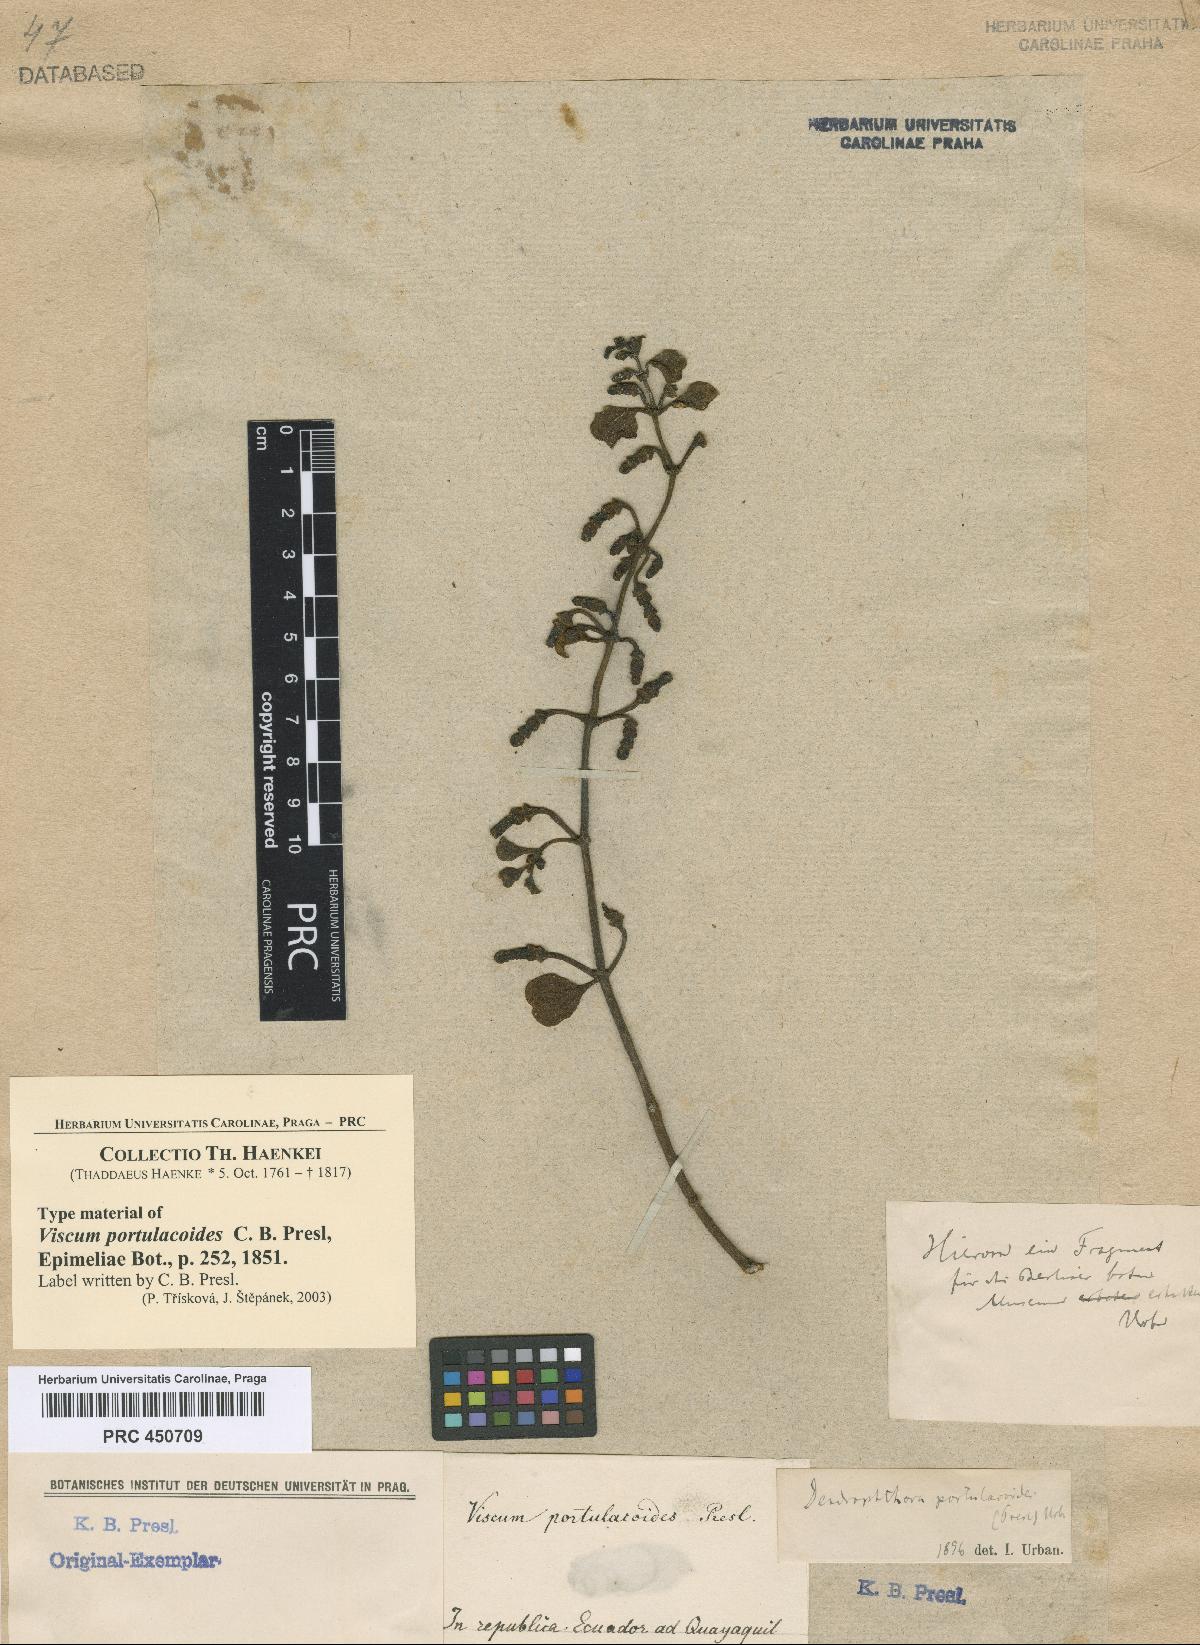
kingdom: Plantae
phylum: Tracheophyta
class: Magnoliopsida
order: Santalales
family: Viscaceae
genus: Dendrophthora
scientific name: Dendrophthora clavata
